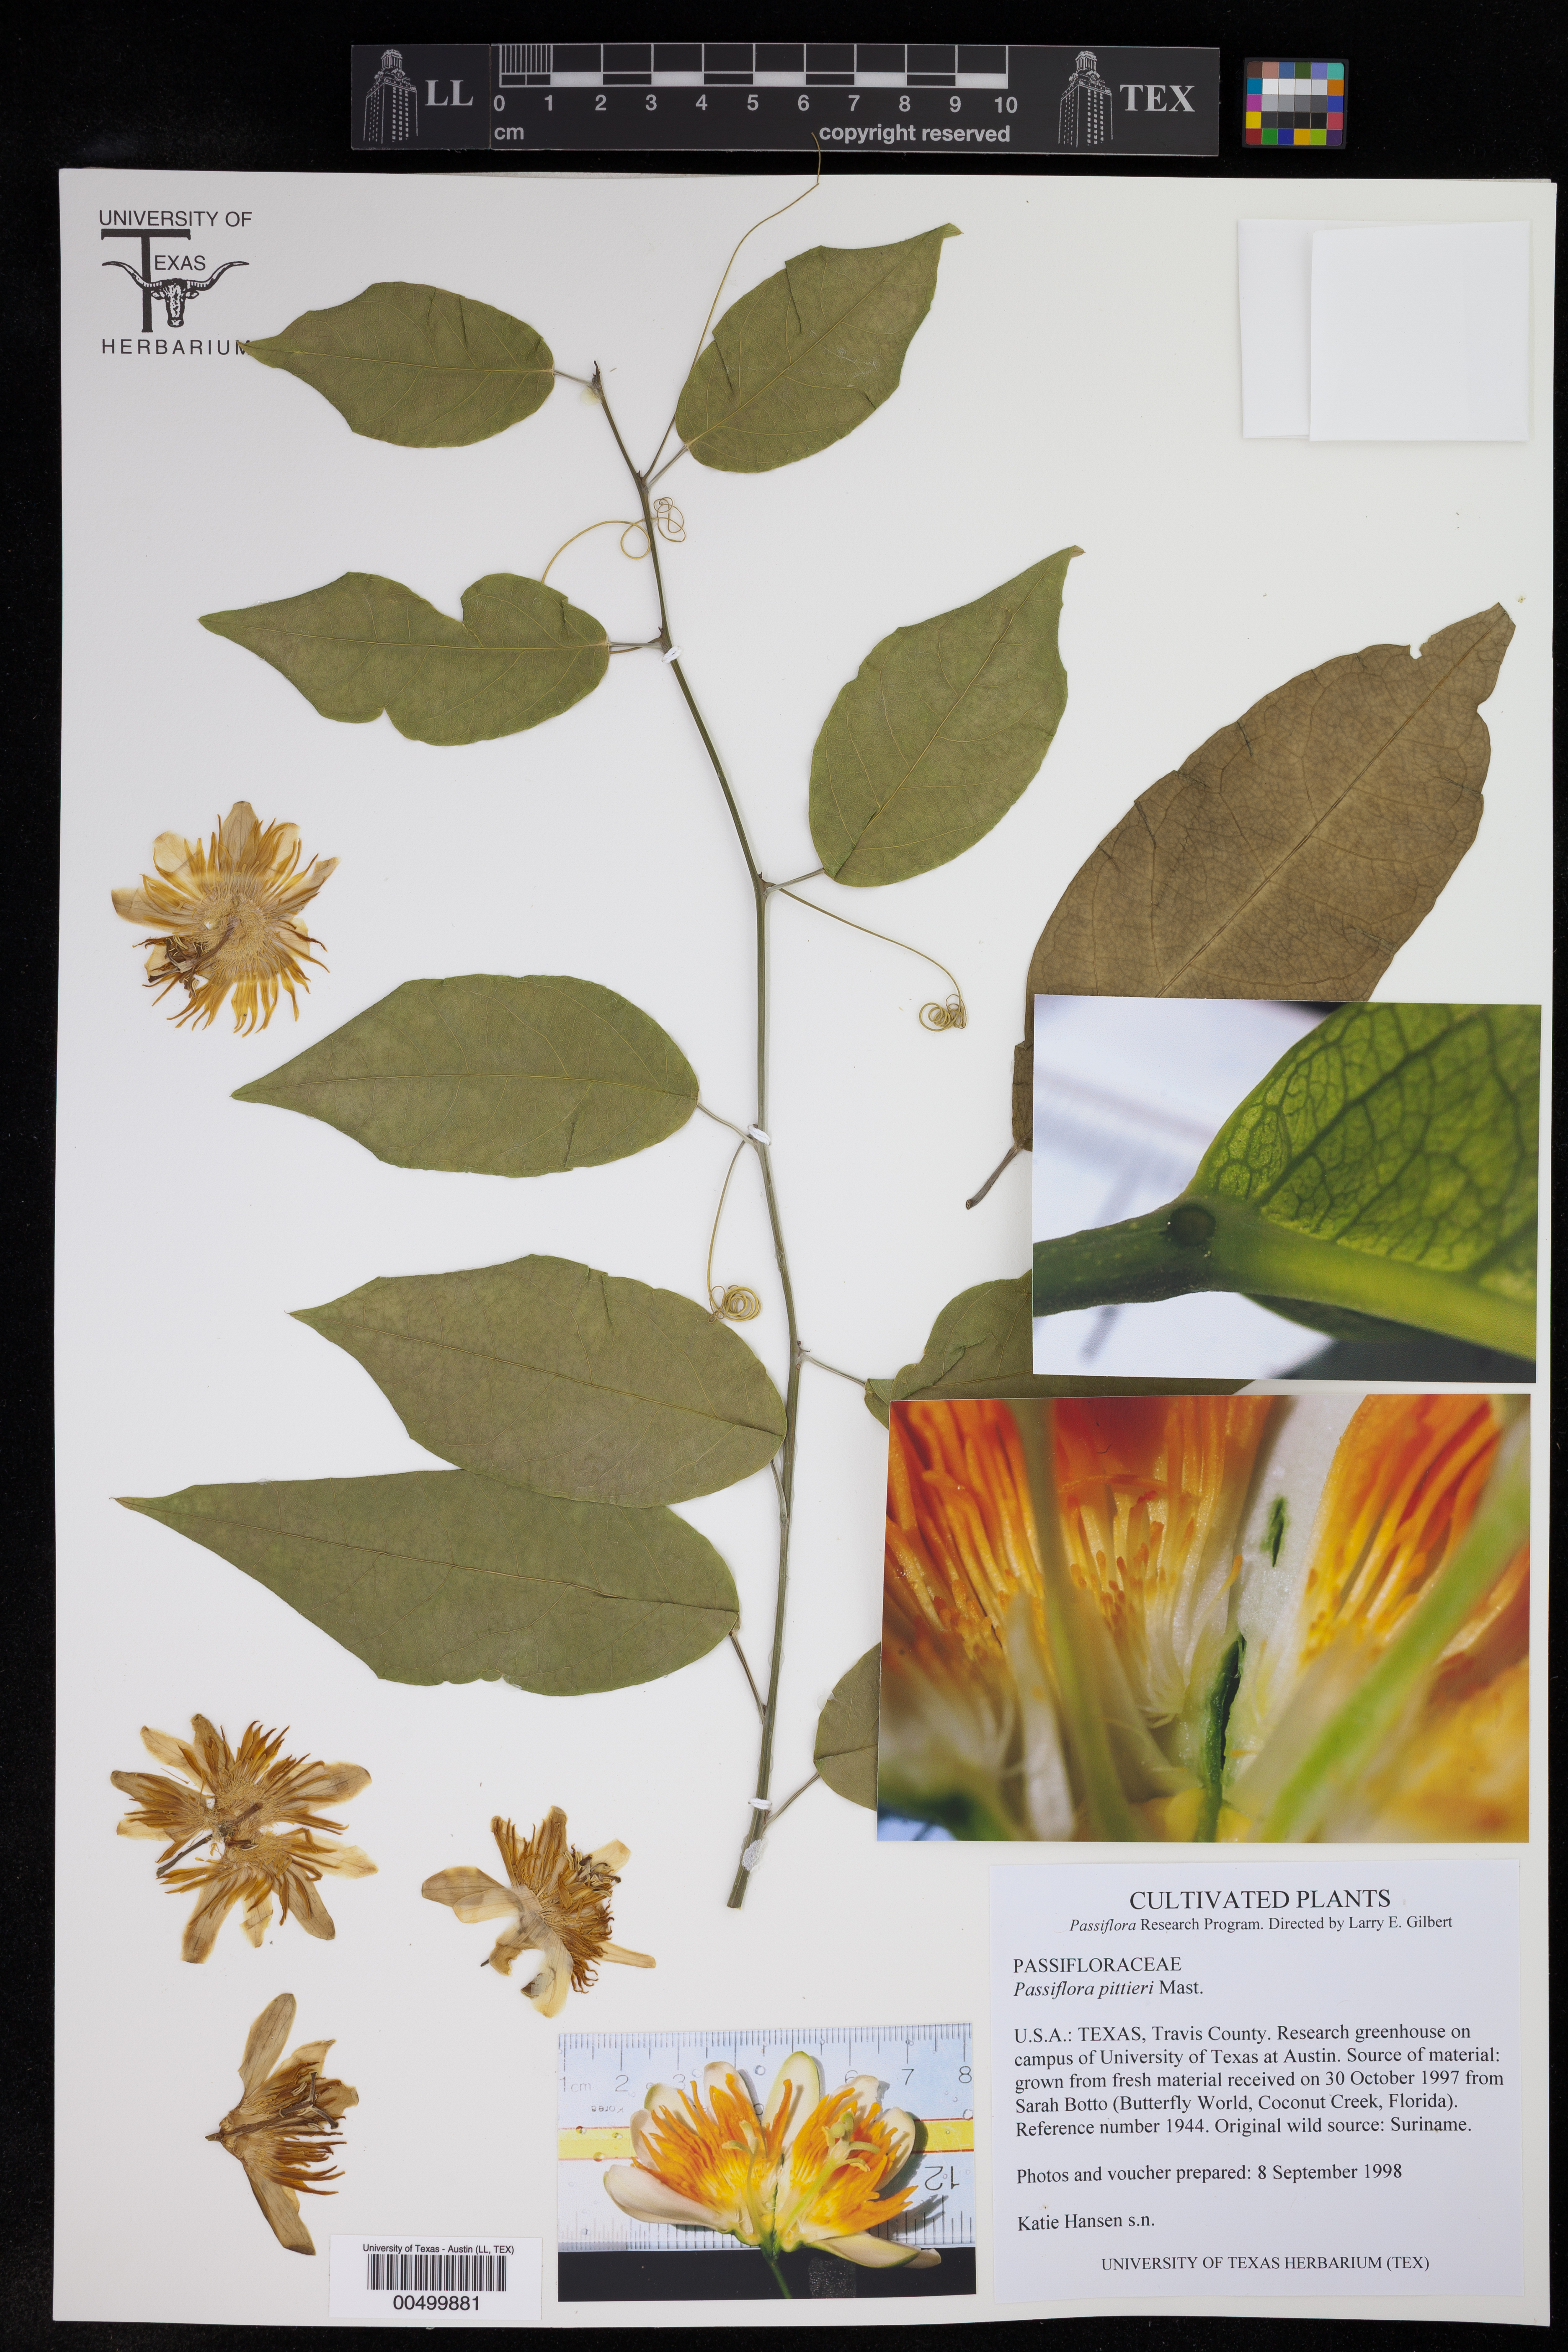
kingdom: Plantae
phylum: Tracheophyta
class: Magnoliopsida
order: Malpighiales
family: Passifloraceae
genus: Passiflora
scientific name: Passiflora pittieri
